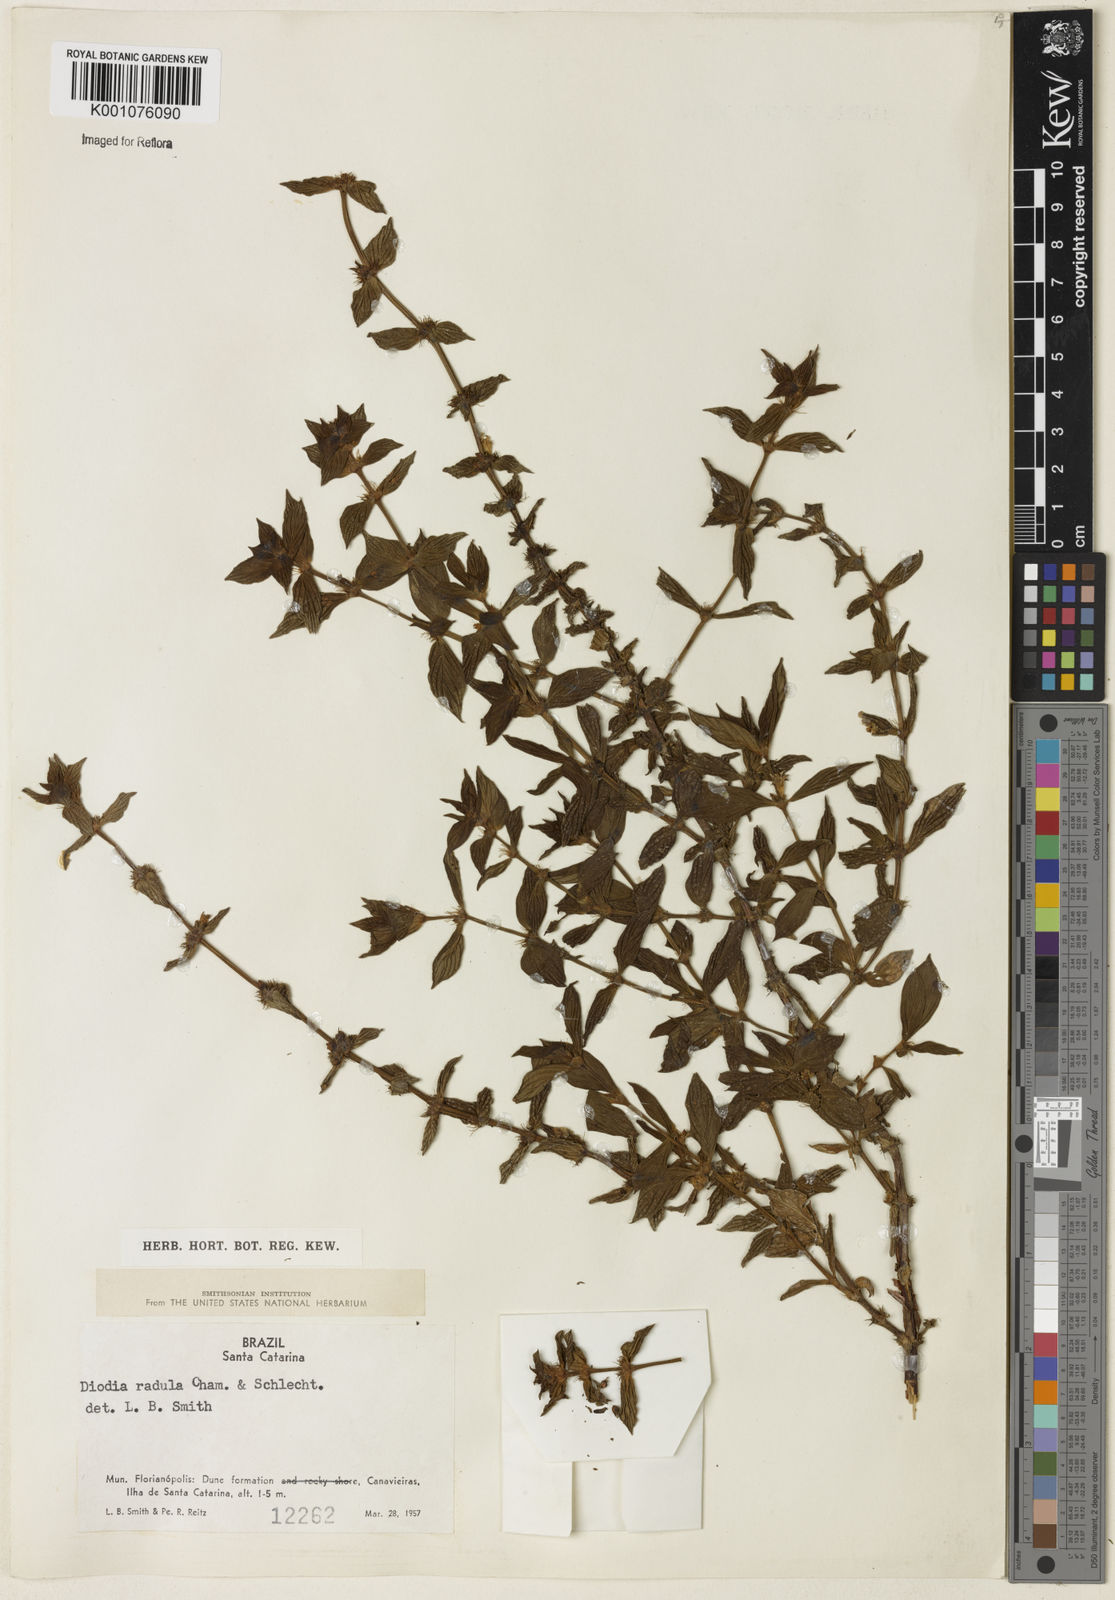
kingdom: Plantae
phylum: Tracheophyta
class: Magnoliopsida
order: Gentianales
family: Rubiaceae
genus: Hexasepalum
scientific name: Hexasepalum radulum
